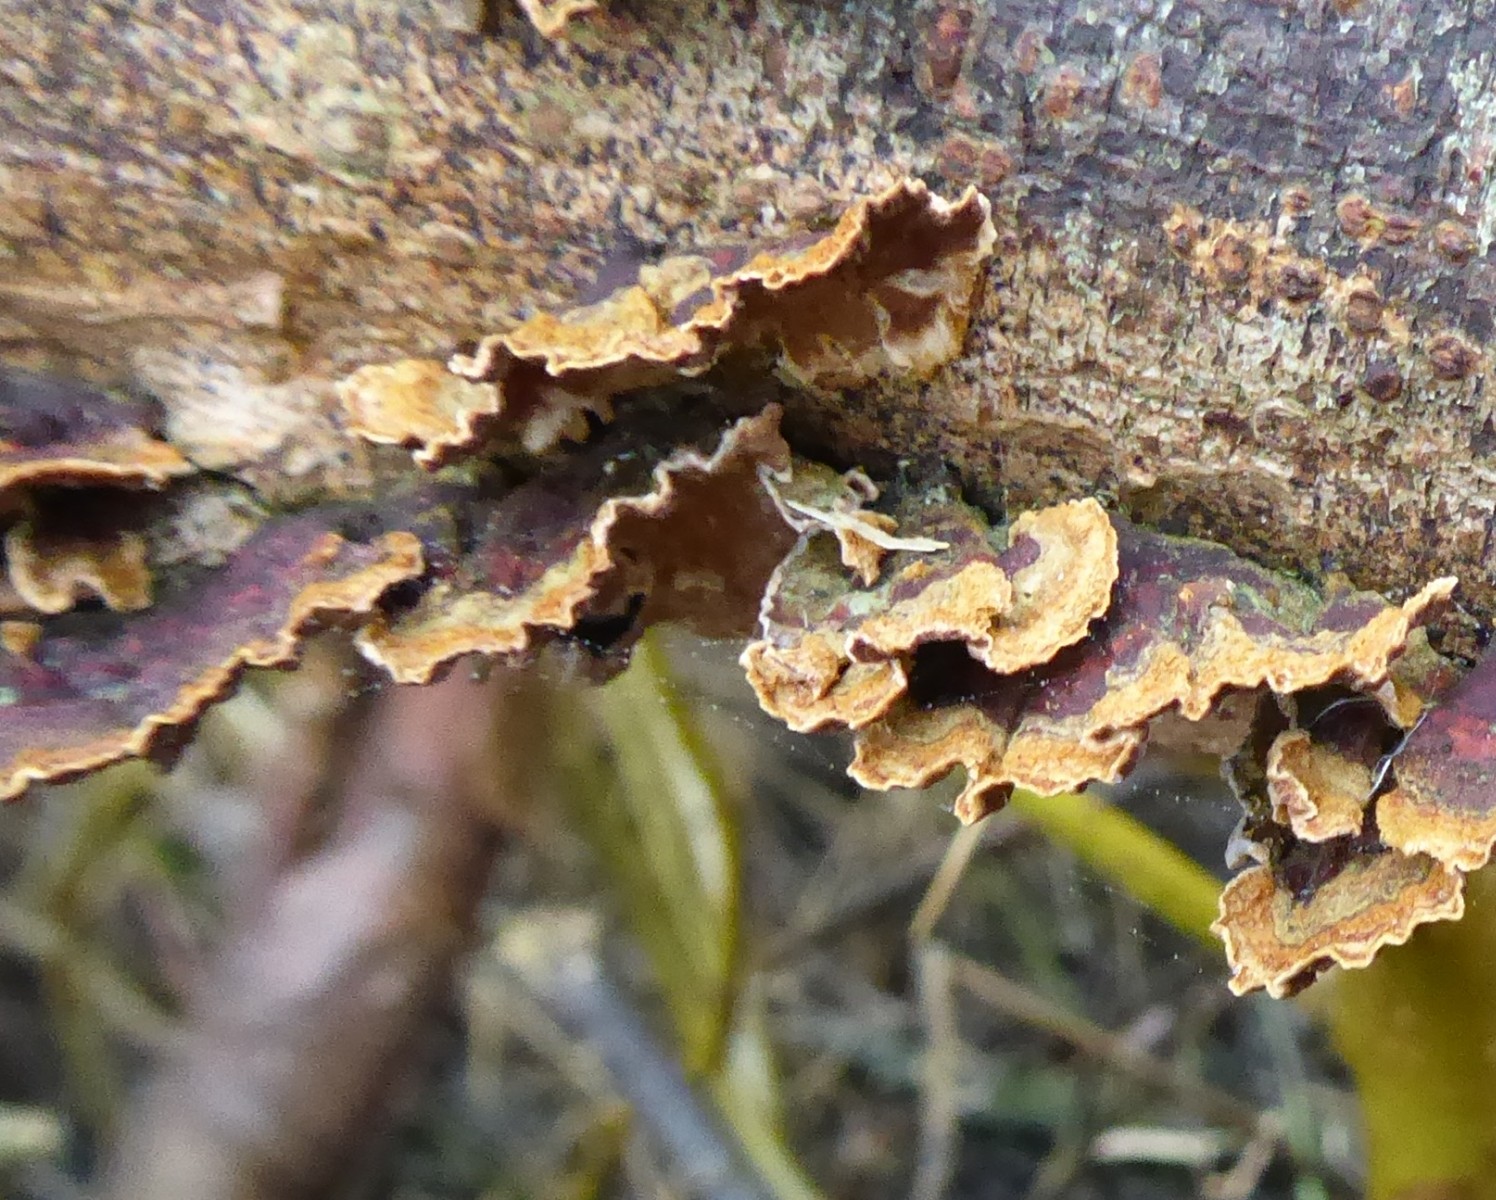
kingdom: Fungi
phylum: Basidiomycota
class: Agaricomycetes
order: Hymenochaetales
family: Hymenochaetaceae
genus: Hydnoporia
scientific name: Hydnoporia tabacina
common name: tobaksbrun ruslædersvamp
